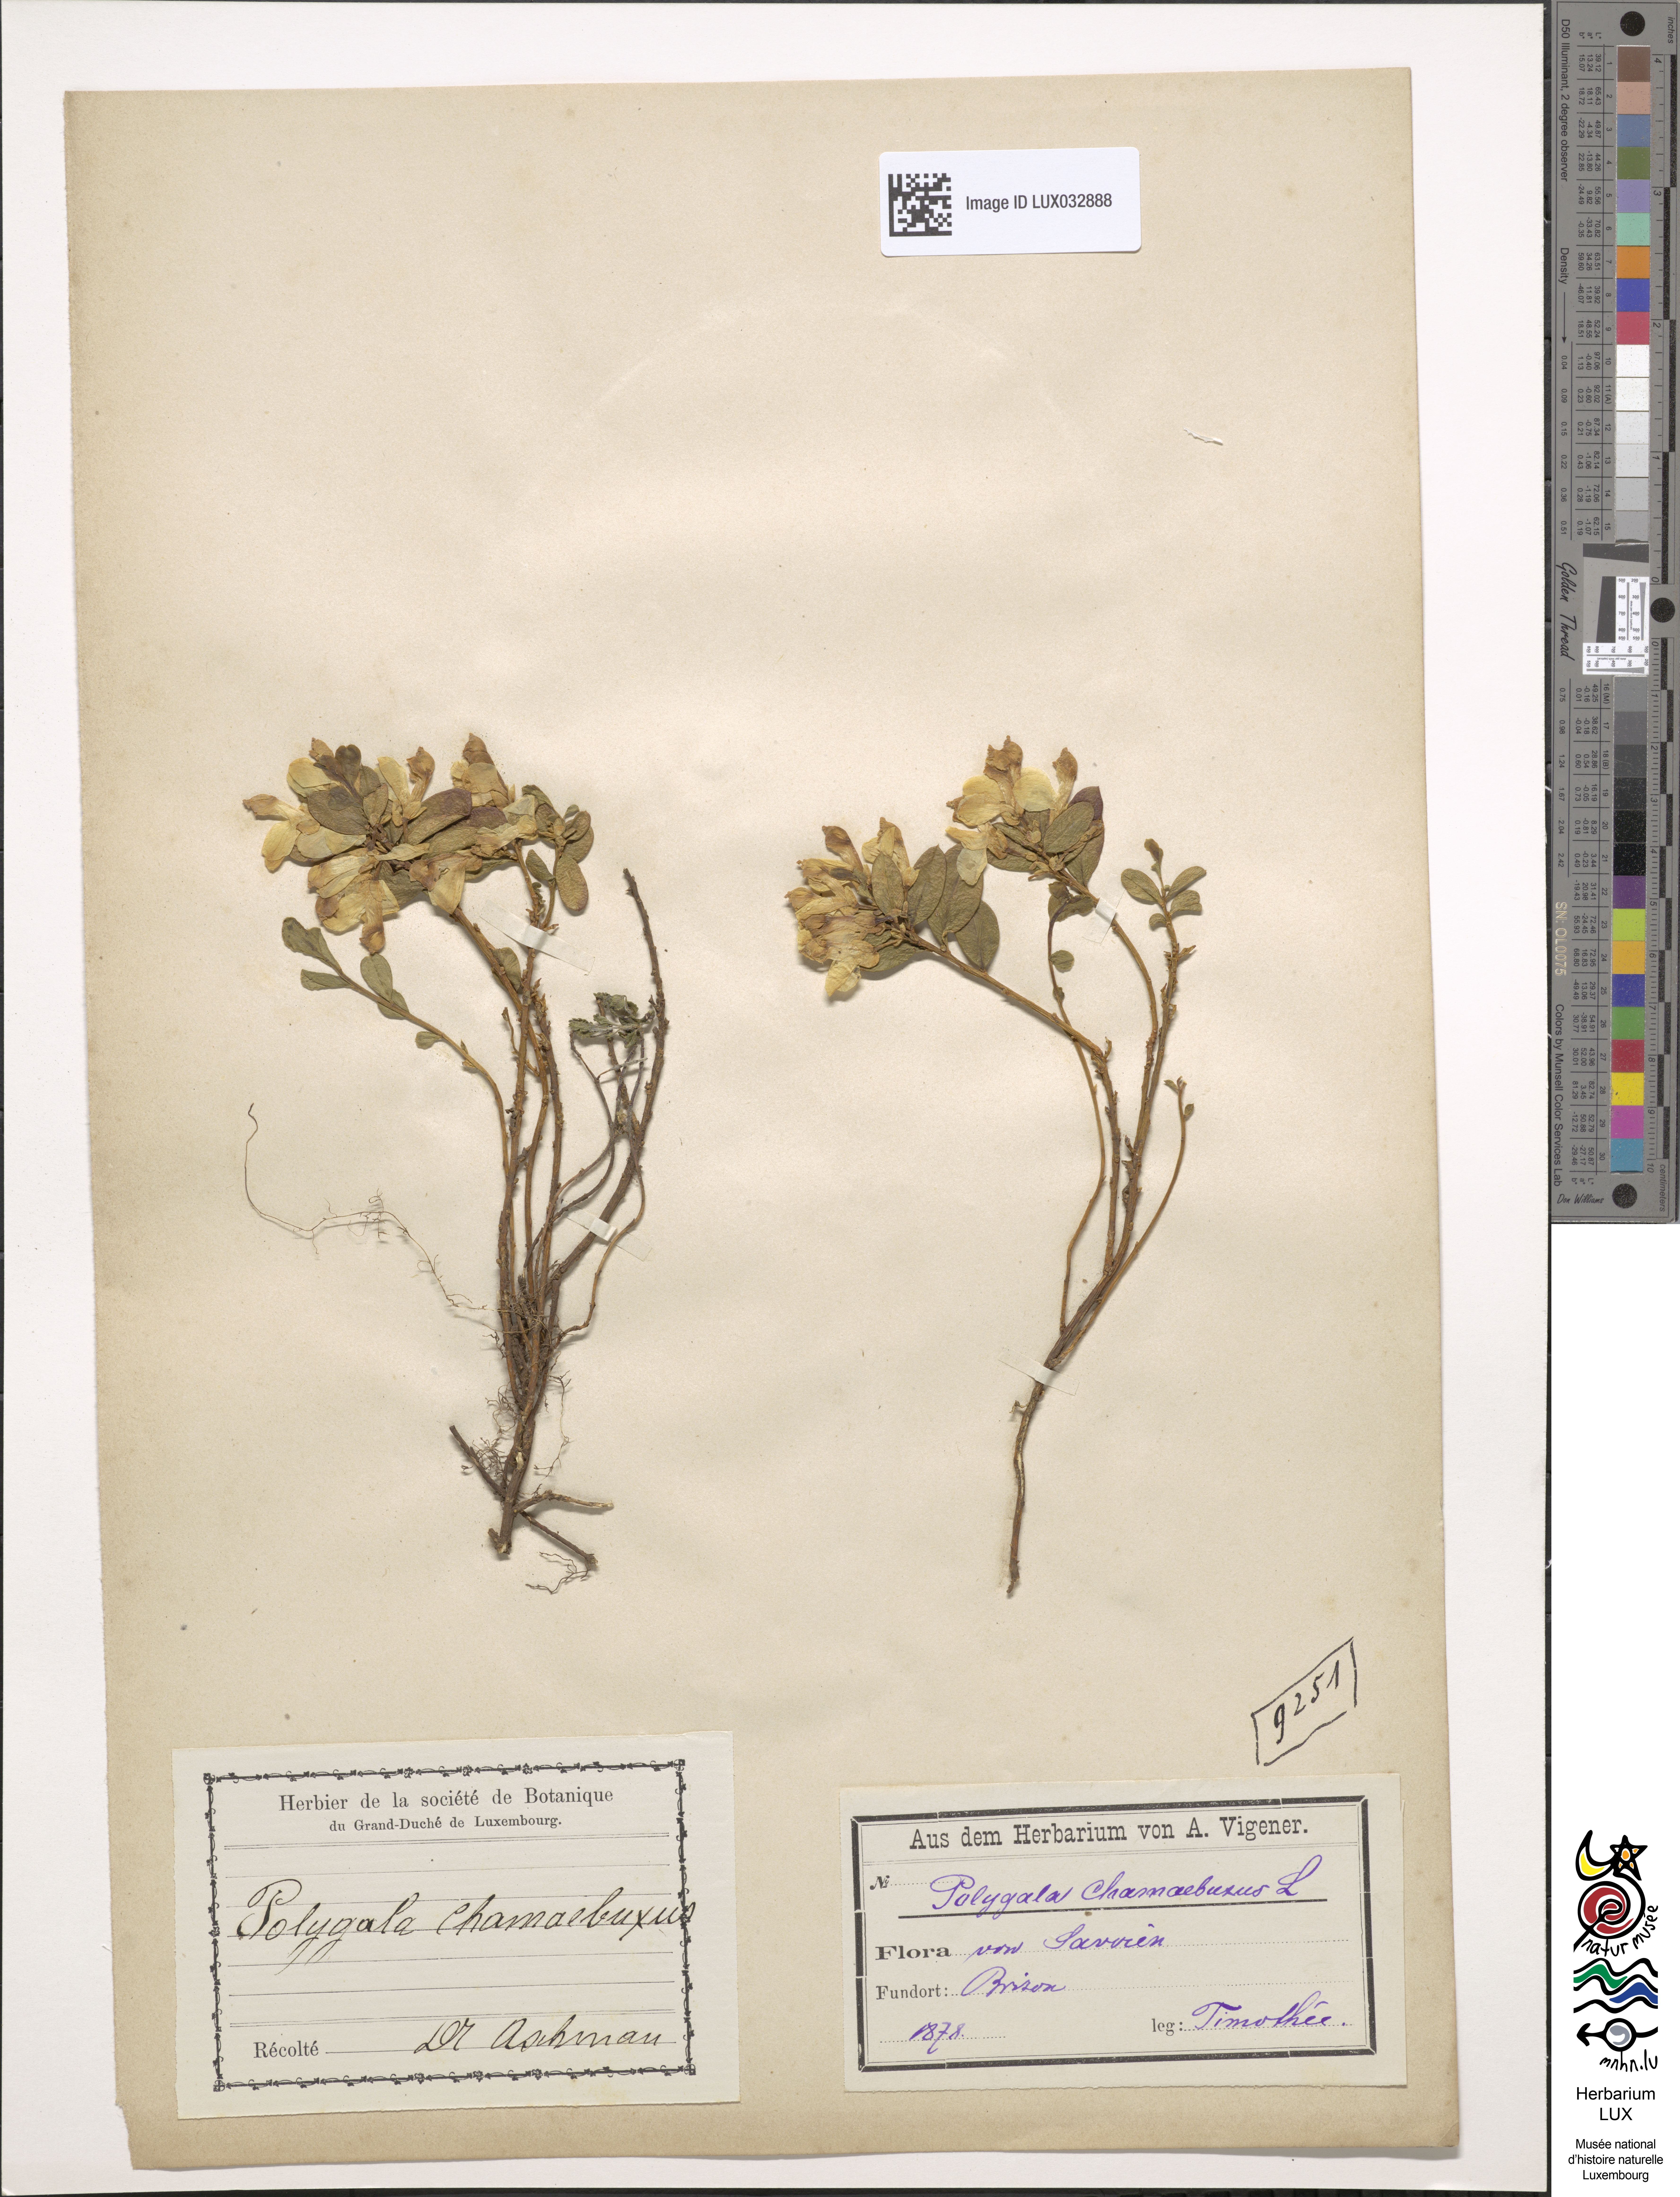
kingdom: Plantae
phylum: Tracheophyta
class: Magnoliopsida
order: Fabales
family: Polygalaceae
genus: Polygaloides
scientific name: Polygaloides chamaebuxus
